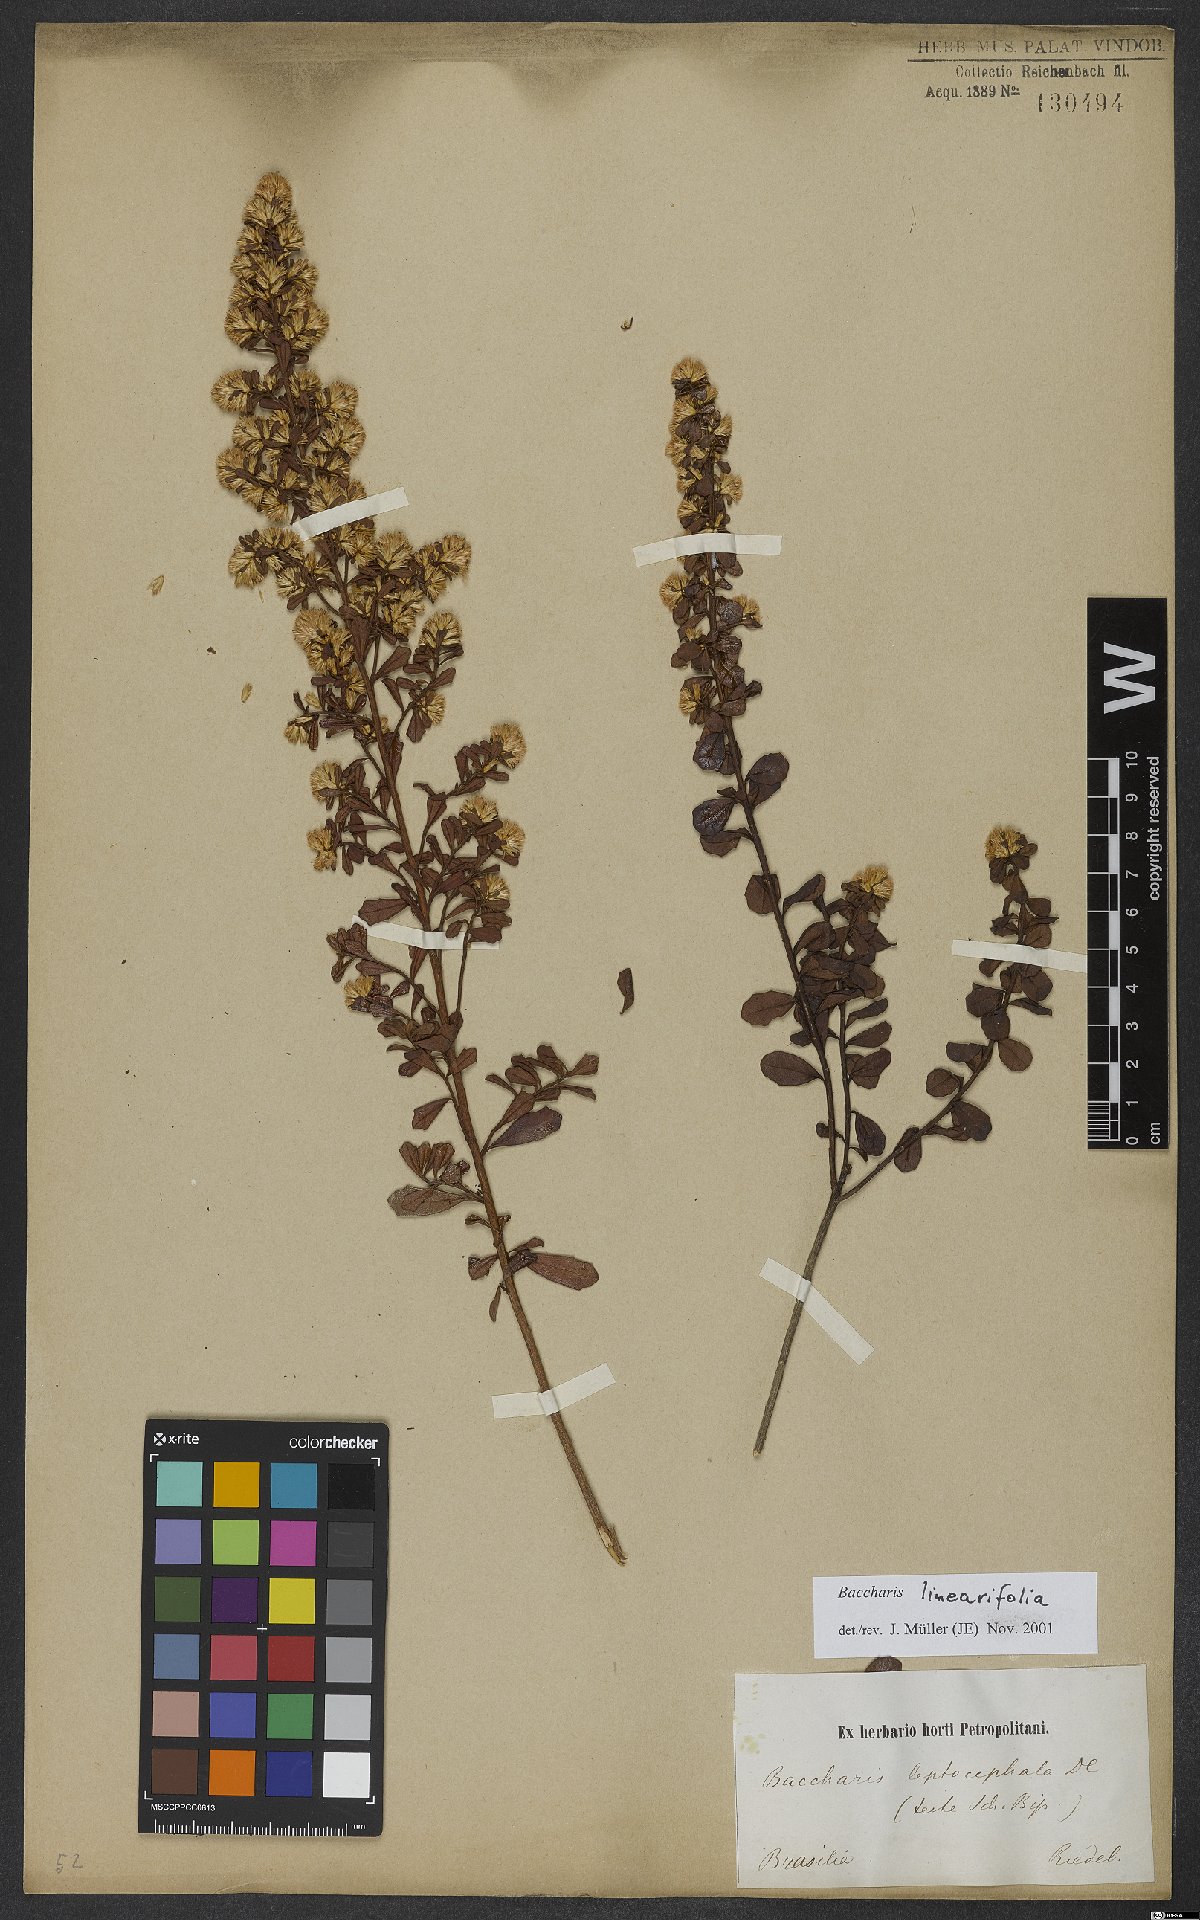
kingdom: Plantae
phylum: Tracheophyta
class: Magnoliopsida
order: Asterales
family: Asteraceae
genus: Baccharis
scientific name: Baccharis linearifolia
